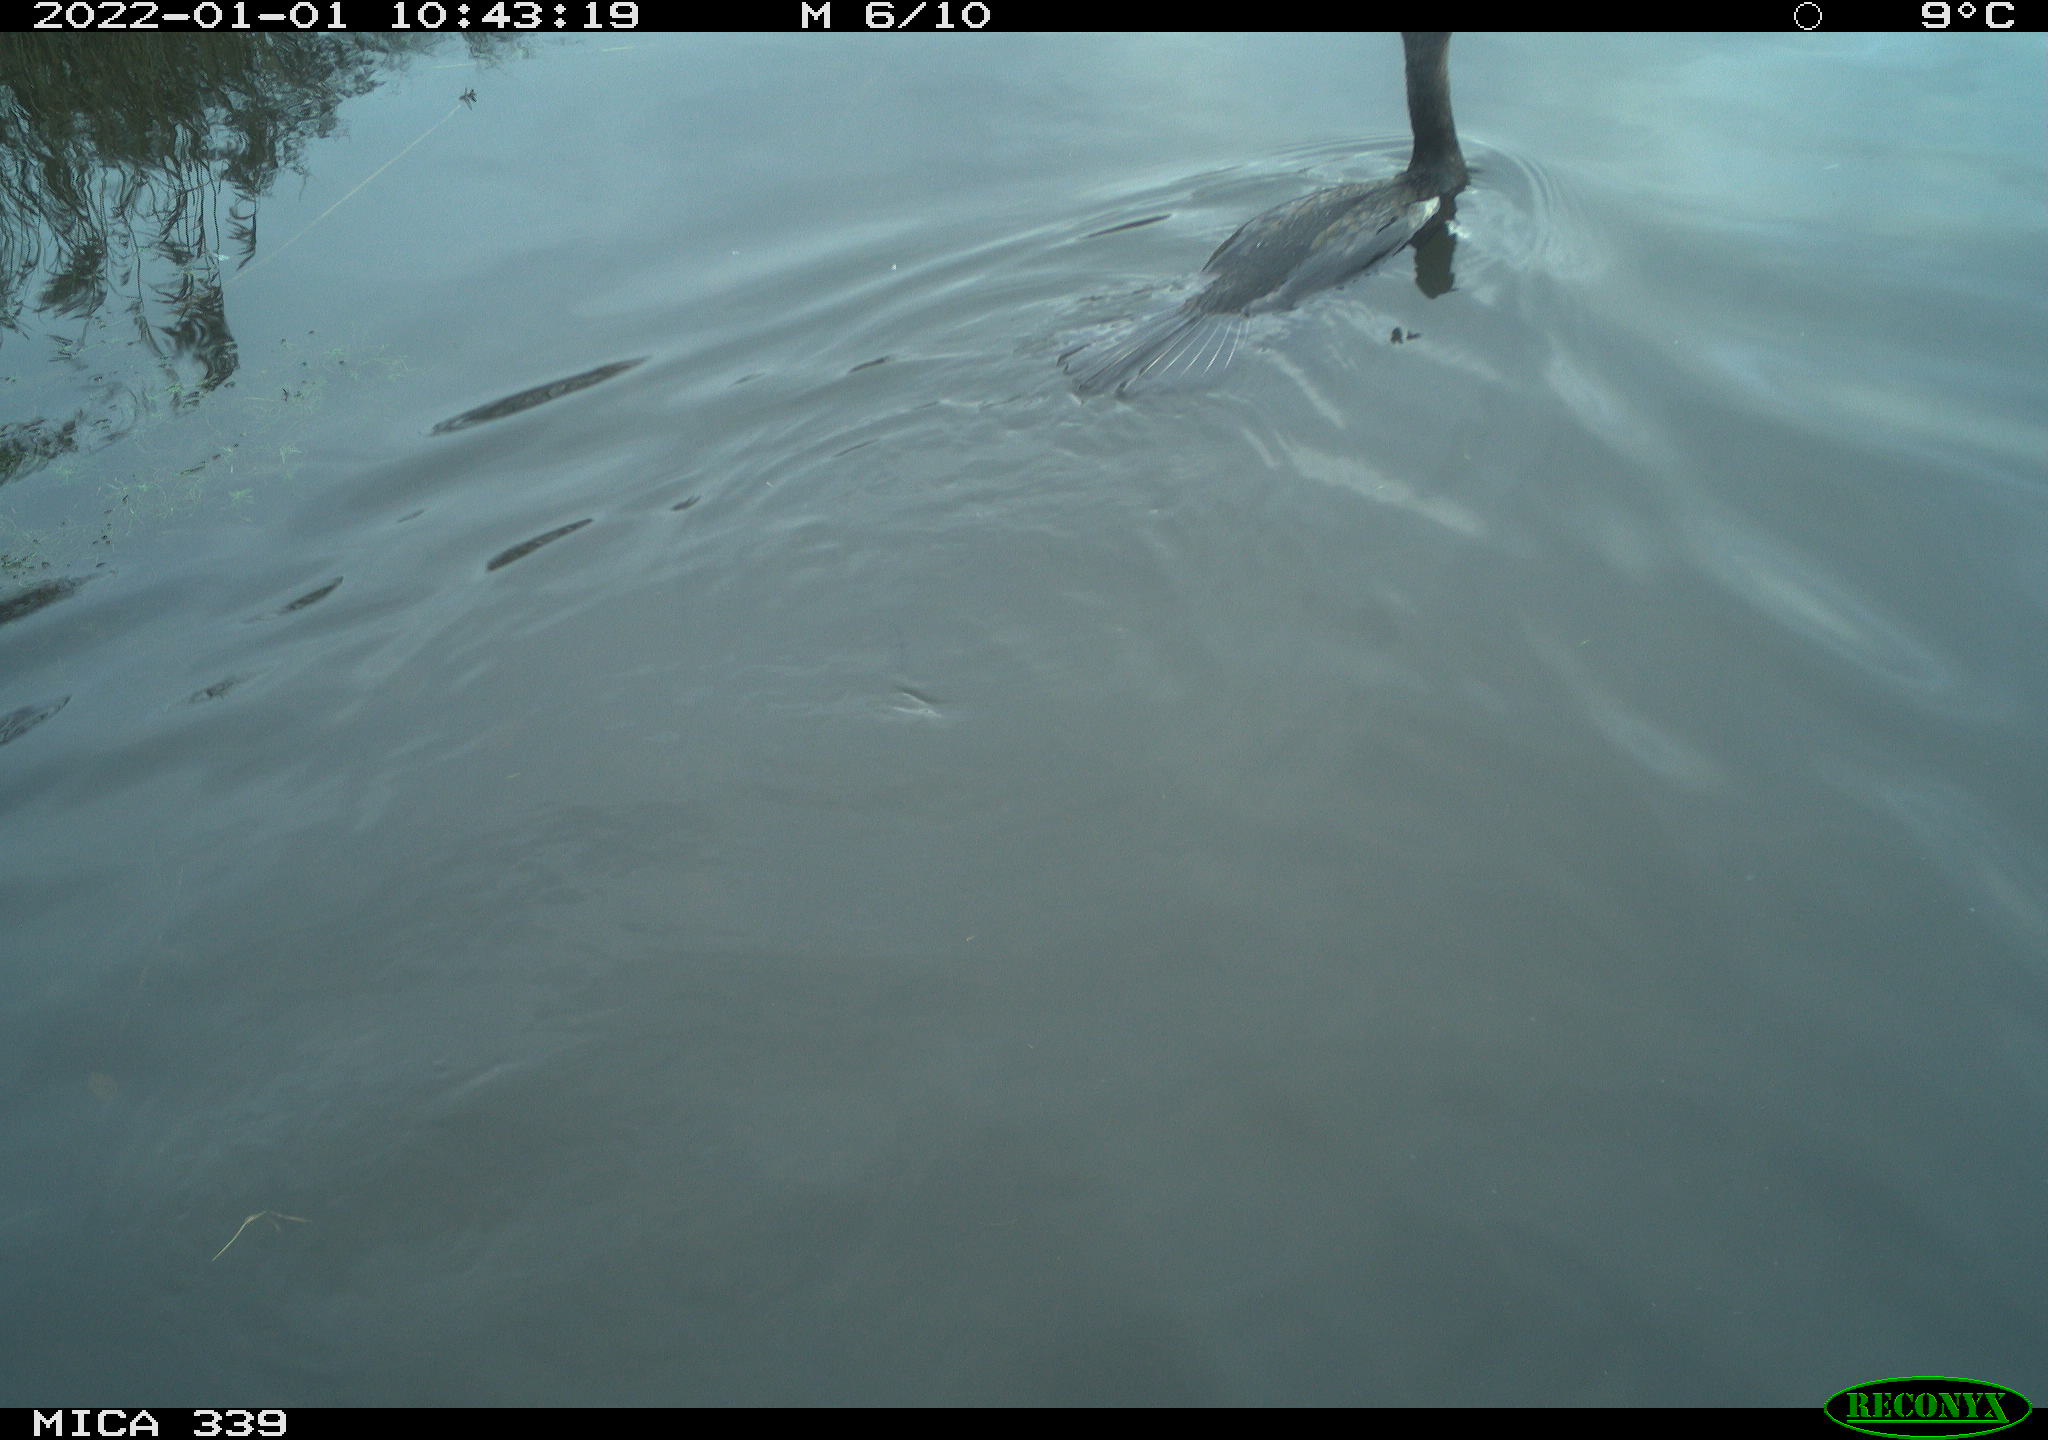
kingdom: Animalia
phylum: Chordata
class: Aves
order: Suliformes
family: Phalacrocoracidae
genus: Phalacrocorax
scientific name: Phalacrocorax carbo
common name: Great cormorant
